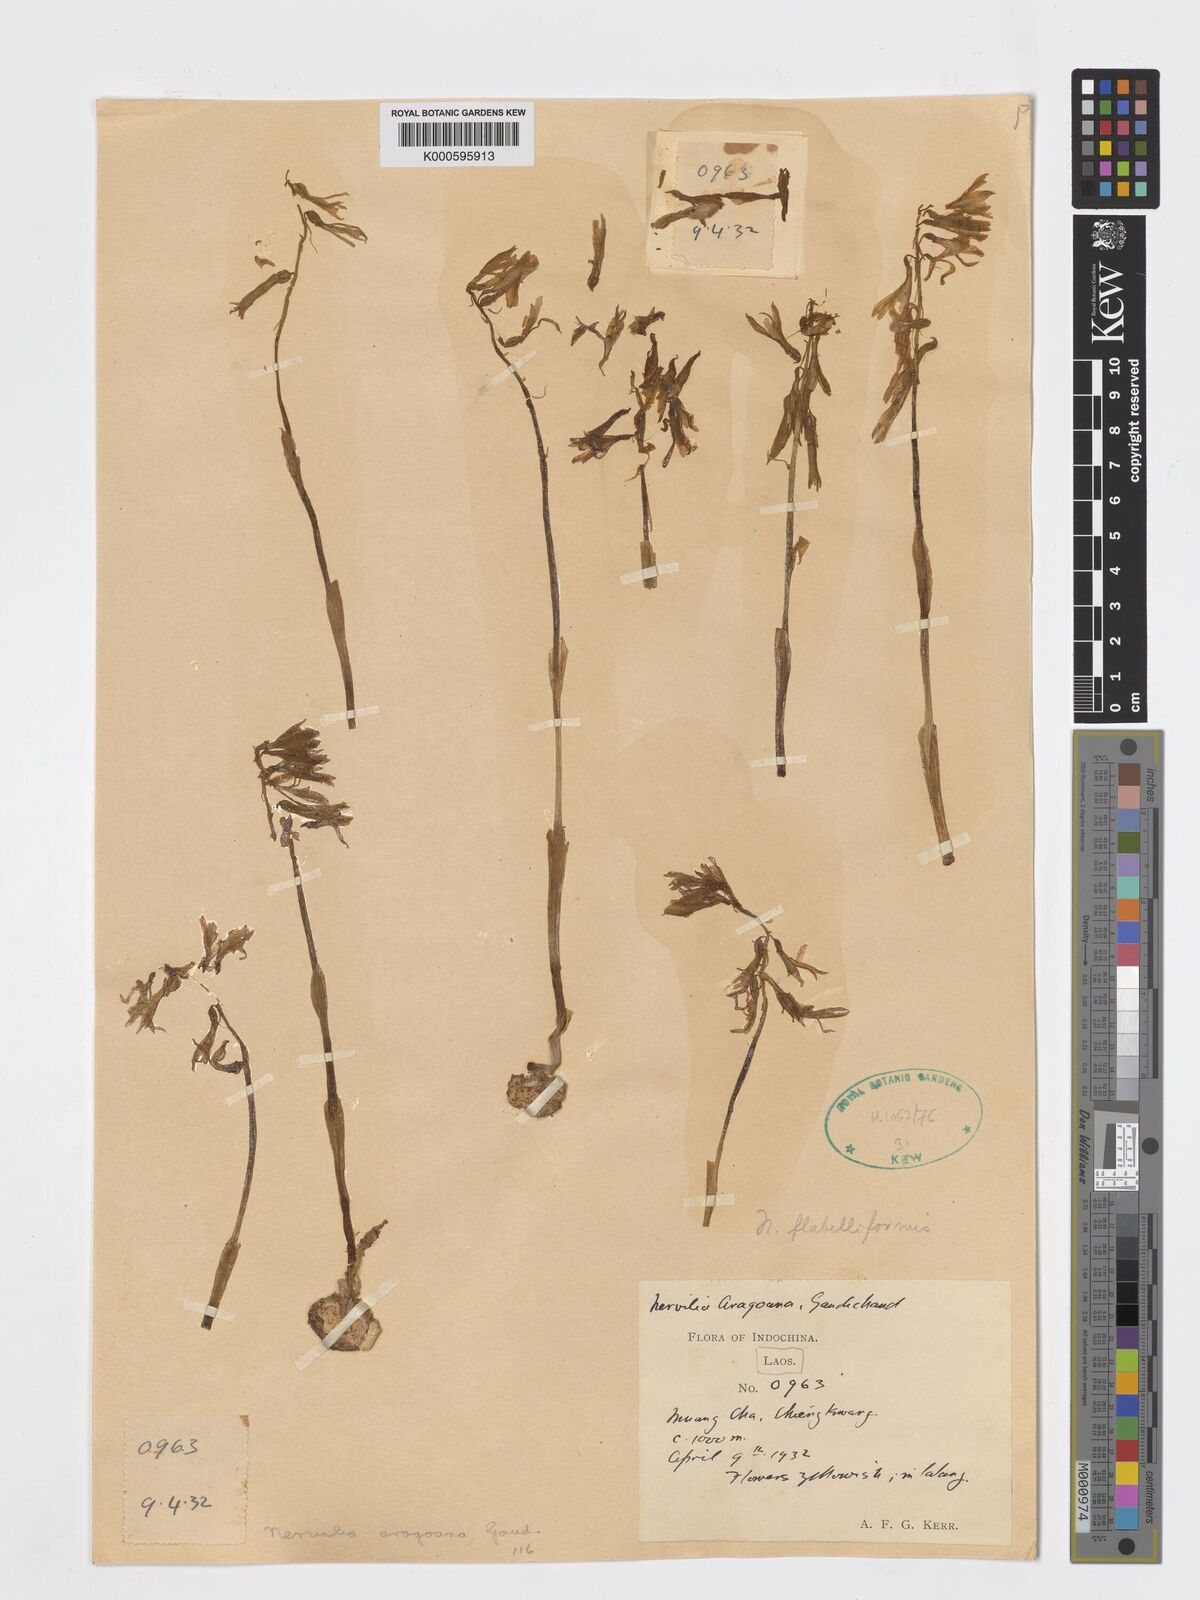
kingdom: Plantae
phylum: Tracheophyta
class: Liliopsida
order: Asparagales
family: Orchidaceae
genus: Nervilia
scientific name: Nervilia concolor
